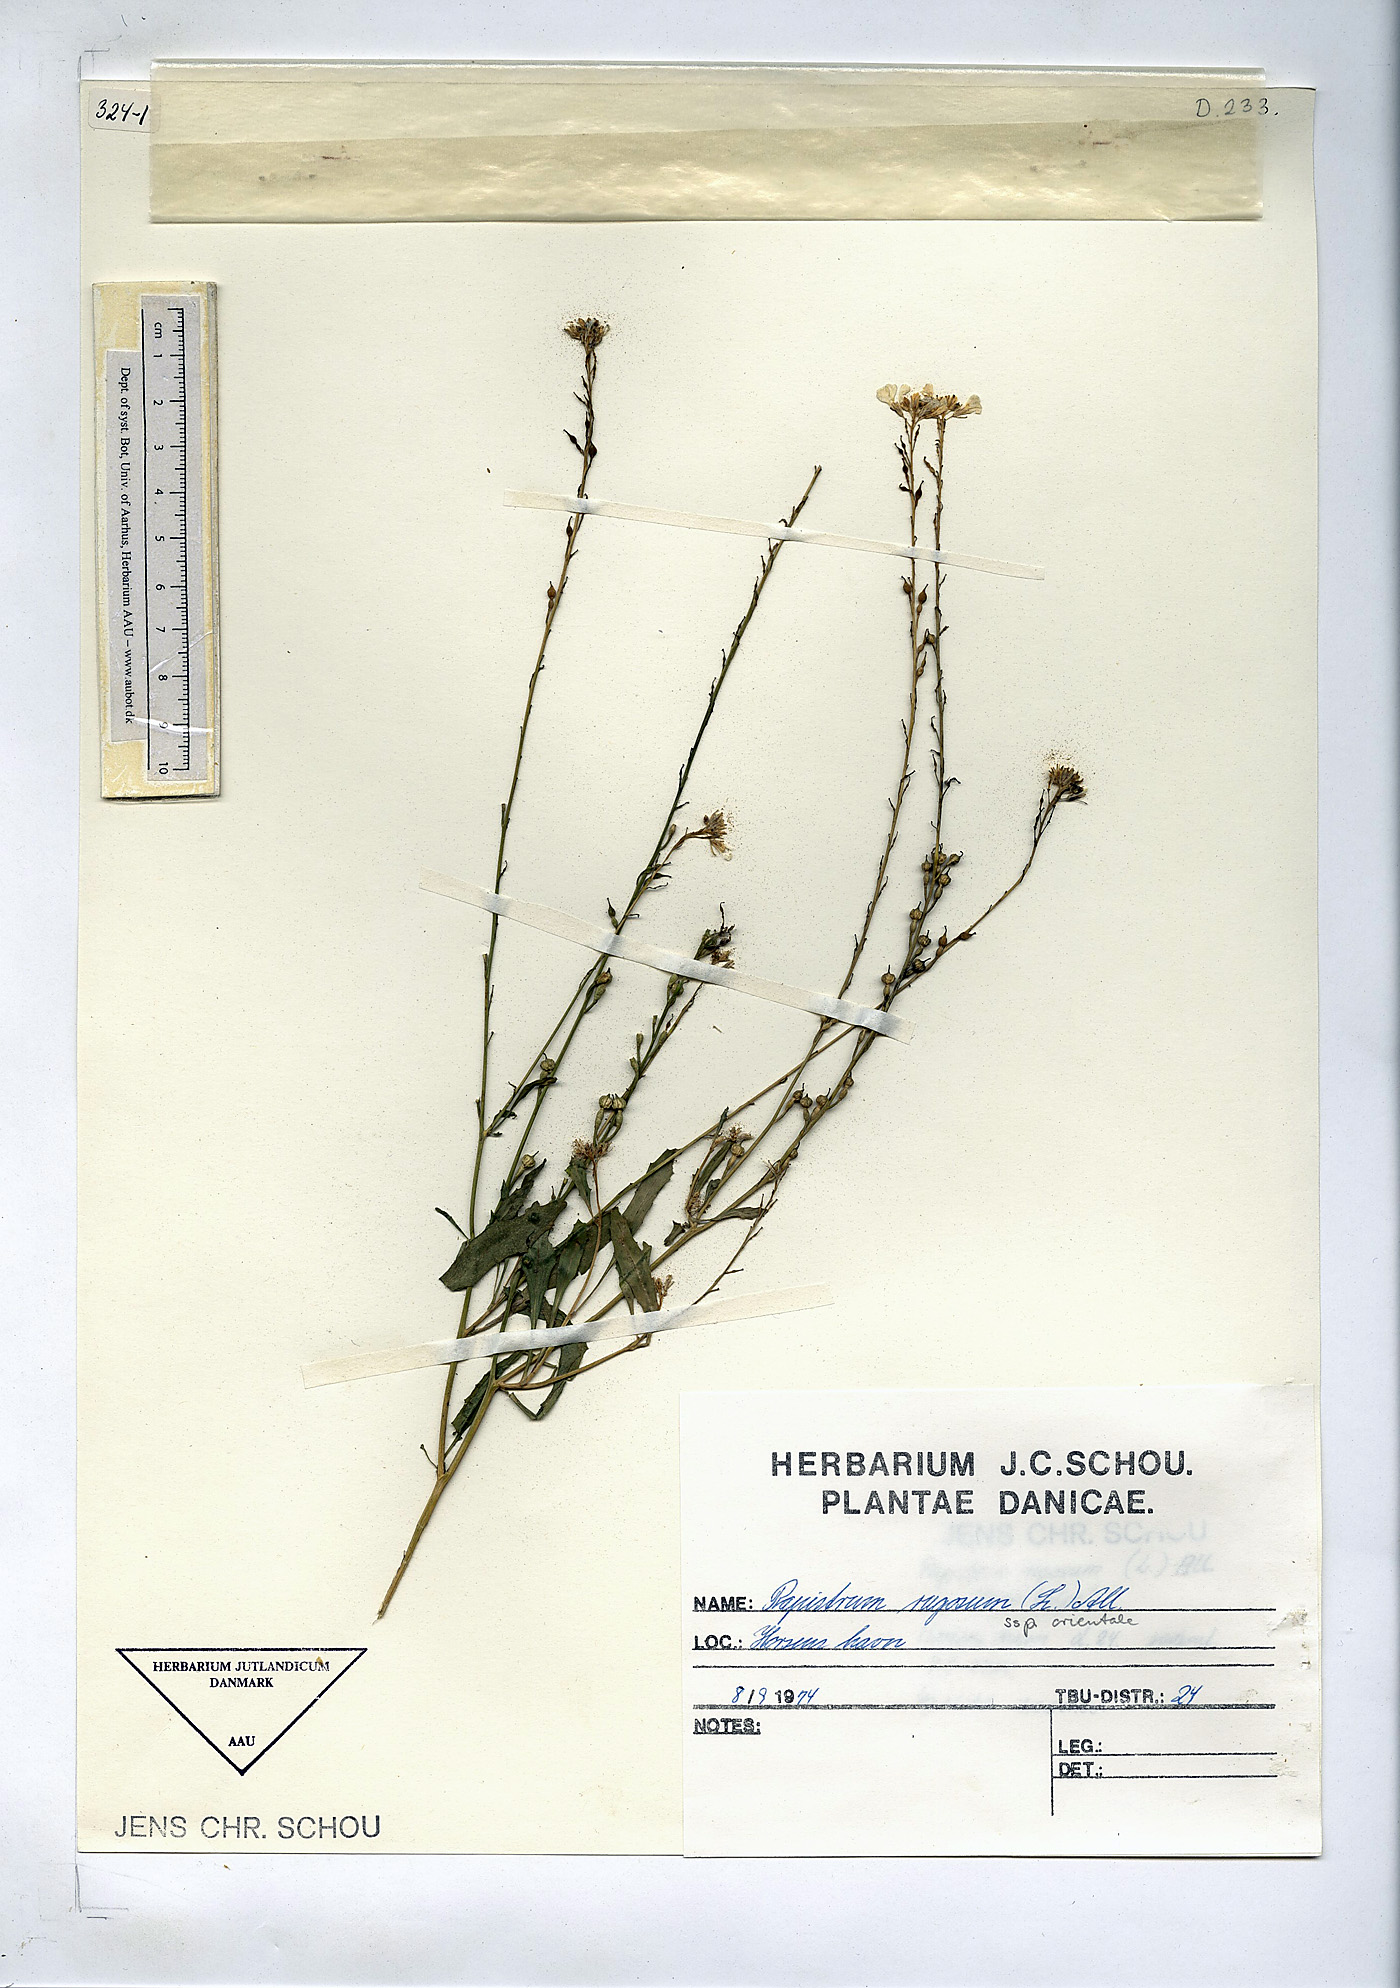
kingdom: Plantae
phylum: Tracheophyta
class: Magnoliopsida
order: Brassicales
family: Brassicaceae
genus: Rapistrum
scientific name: Rapistrum rugosum
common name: Annual bastardcabbage
